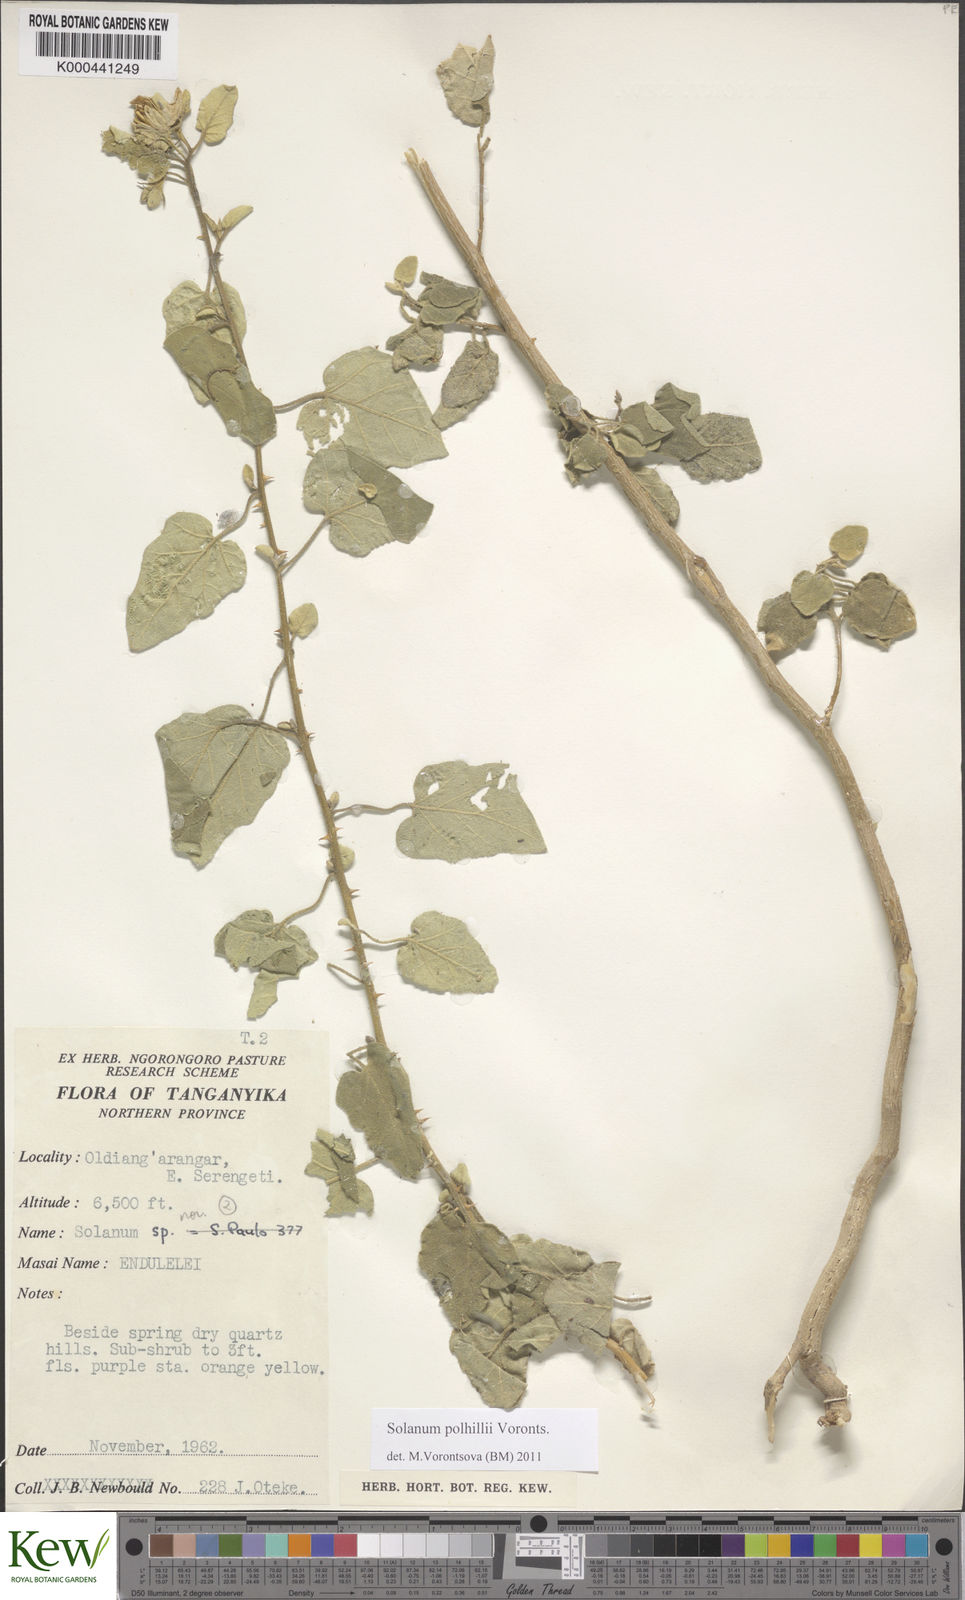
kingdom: Plantae
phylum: Tracheophyta
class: Magnoliopsida
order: Solanales
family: Solanaceae
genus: Solanum
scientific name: Solanum polhillii
